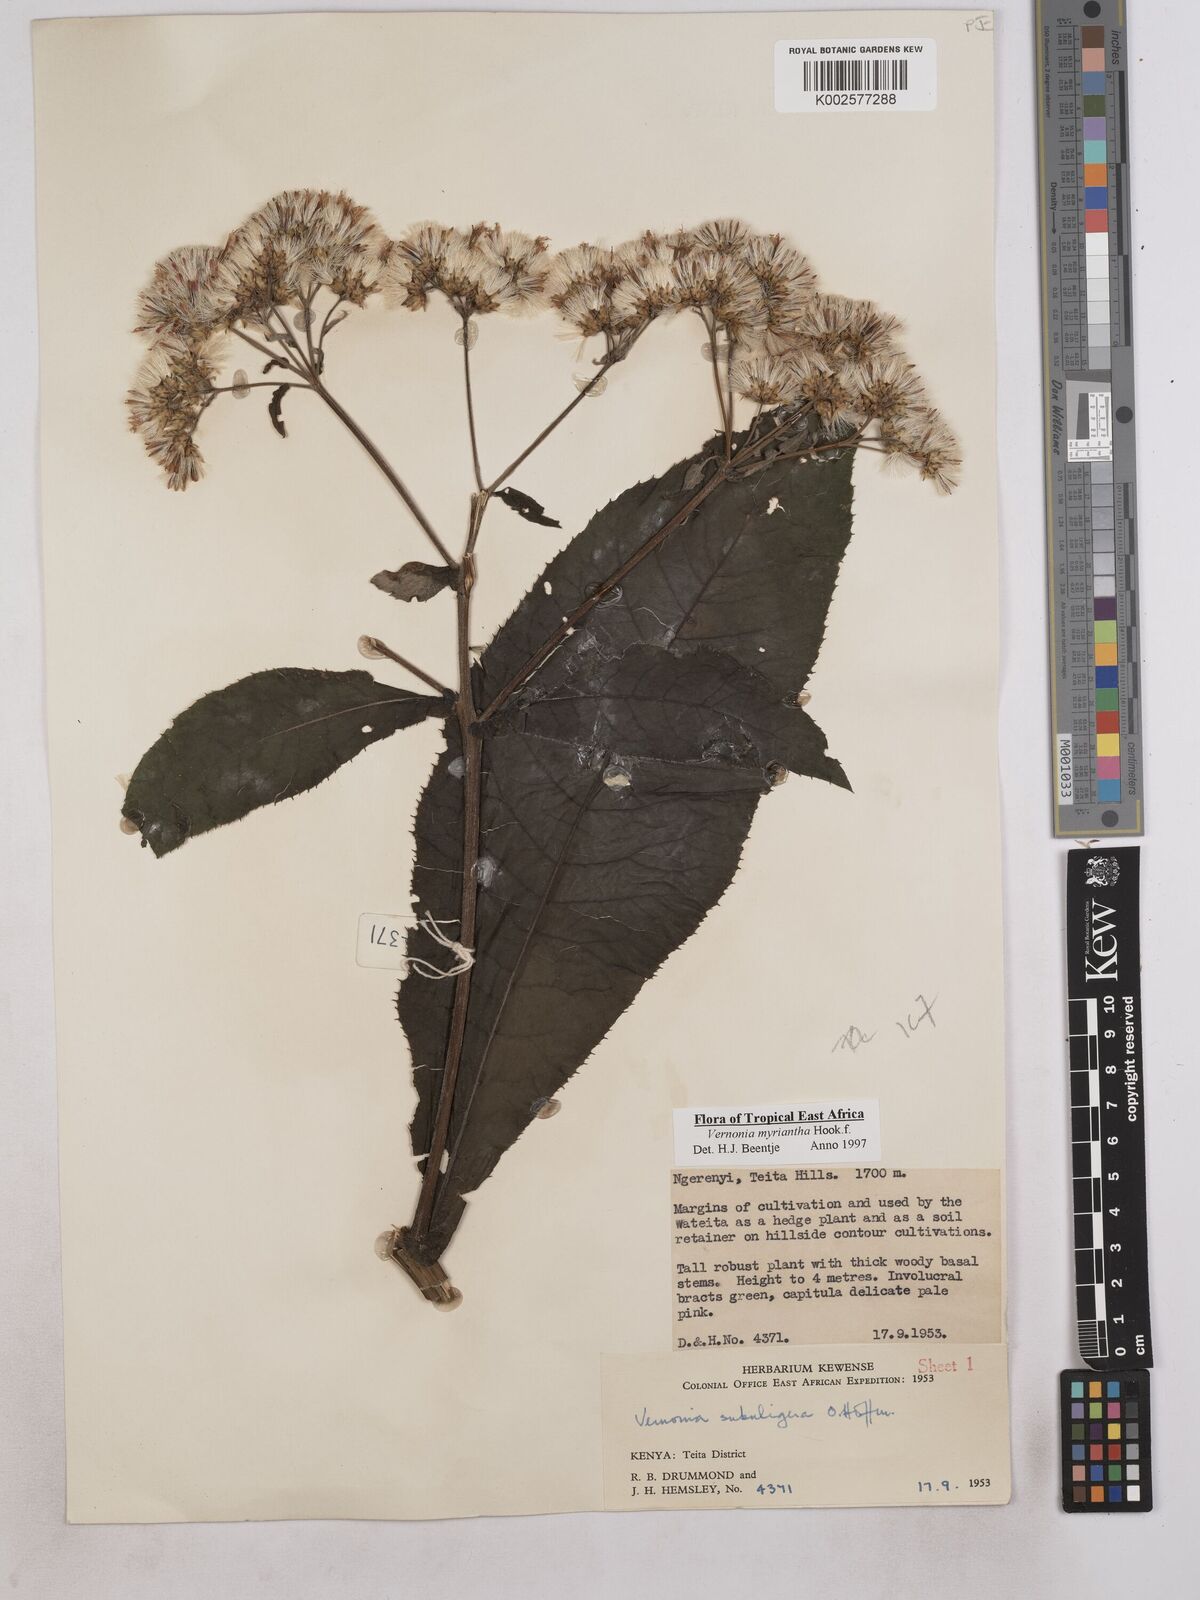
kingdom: Plantae
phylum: Tracheophyta
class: Magnoliopsida
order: Asterales
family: Asteraceae
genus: Gymnanthemum
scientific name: Gymnanthemum myrianthum
